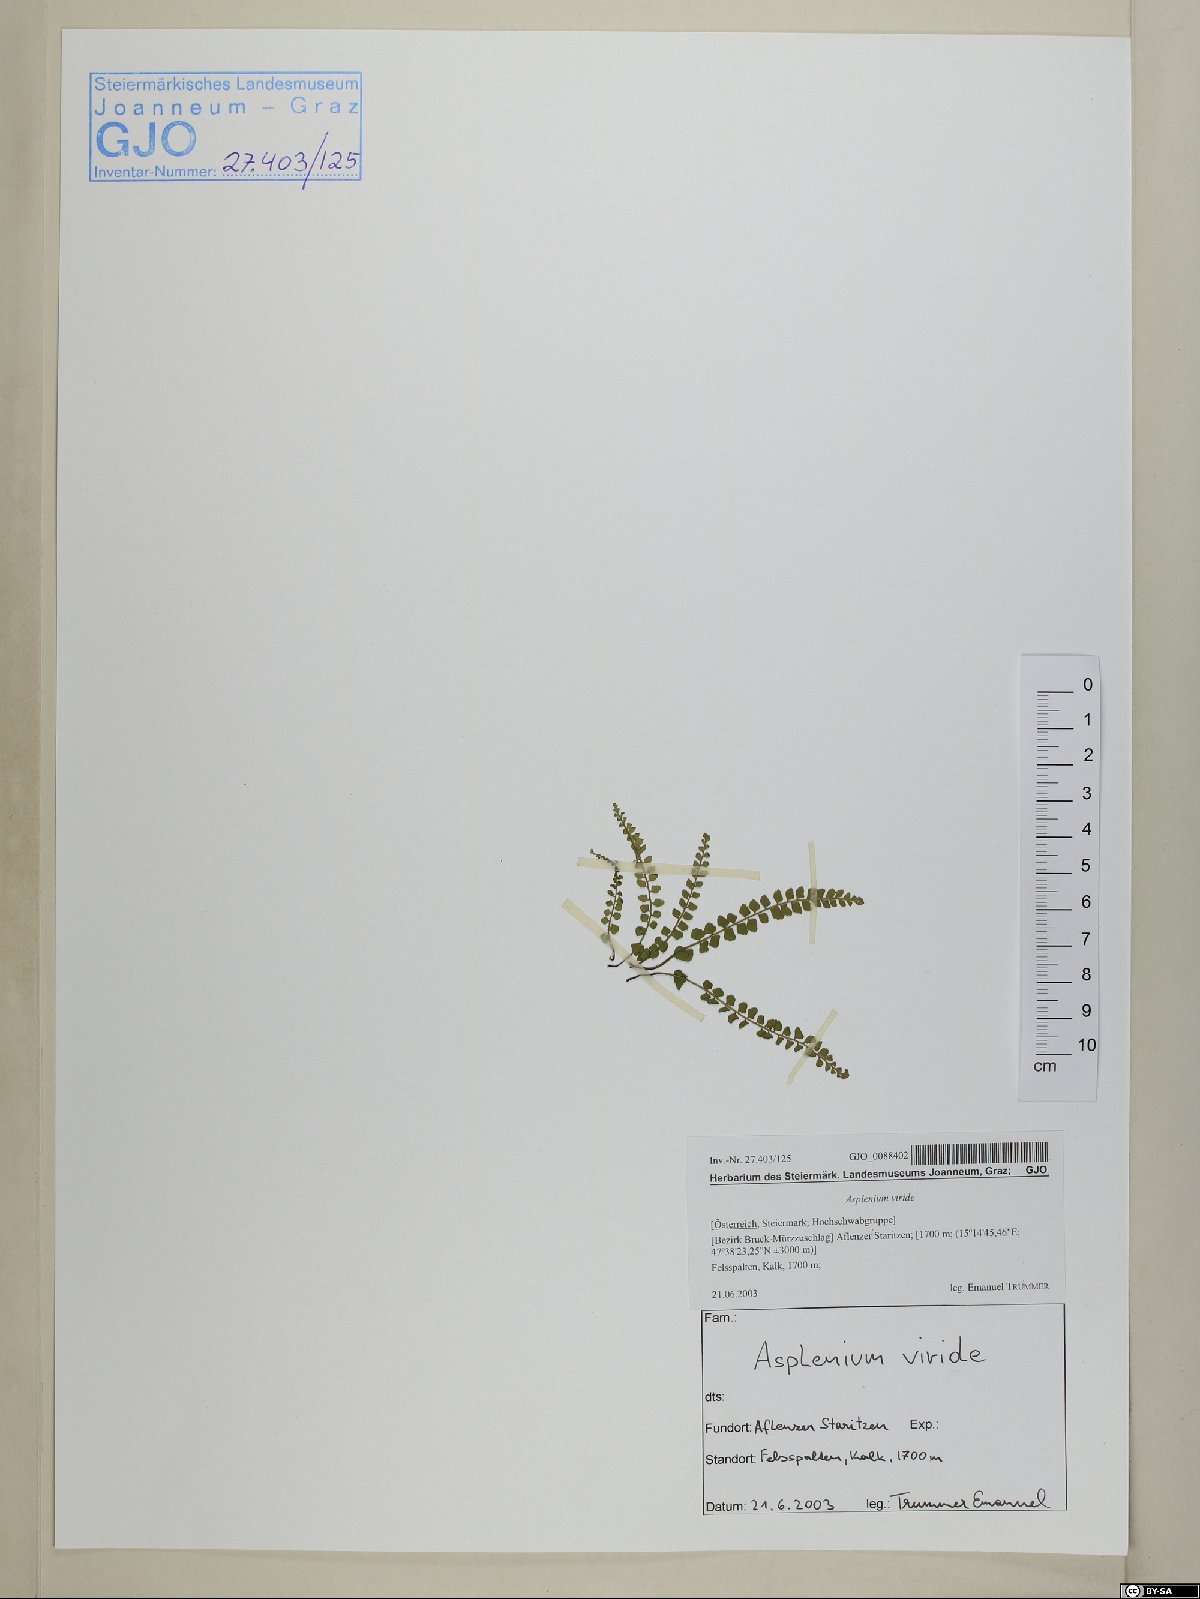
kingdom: Plantae
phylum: Tracheophyta
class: Polypodiopsida
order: Polypodiales
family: Aspleniaceae
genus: Asplenium
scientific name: Asplenium viride
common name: Green spleenwort
